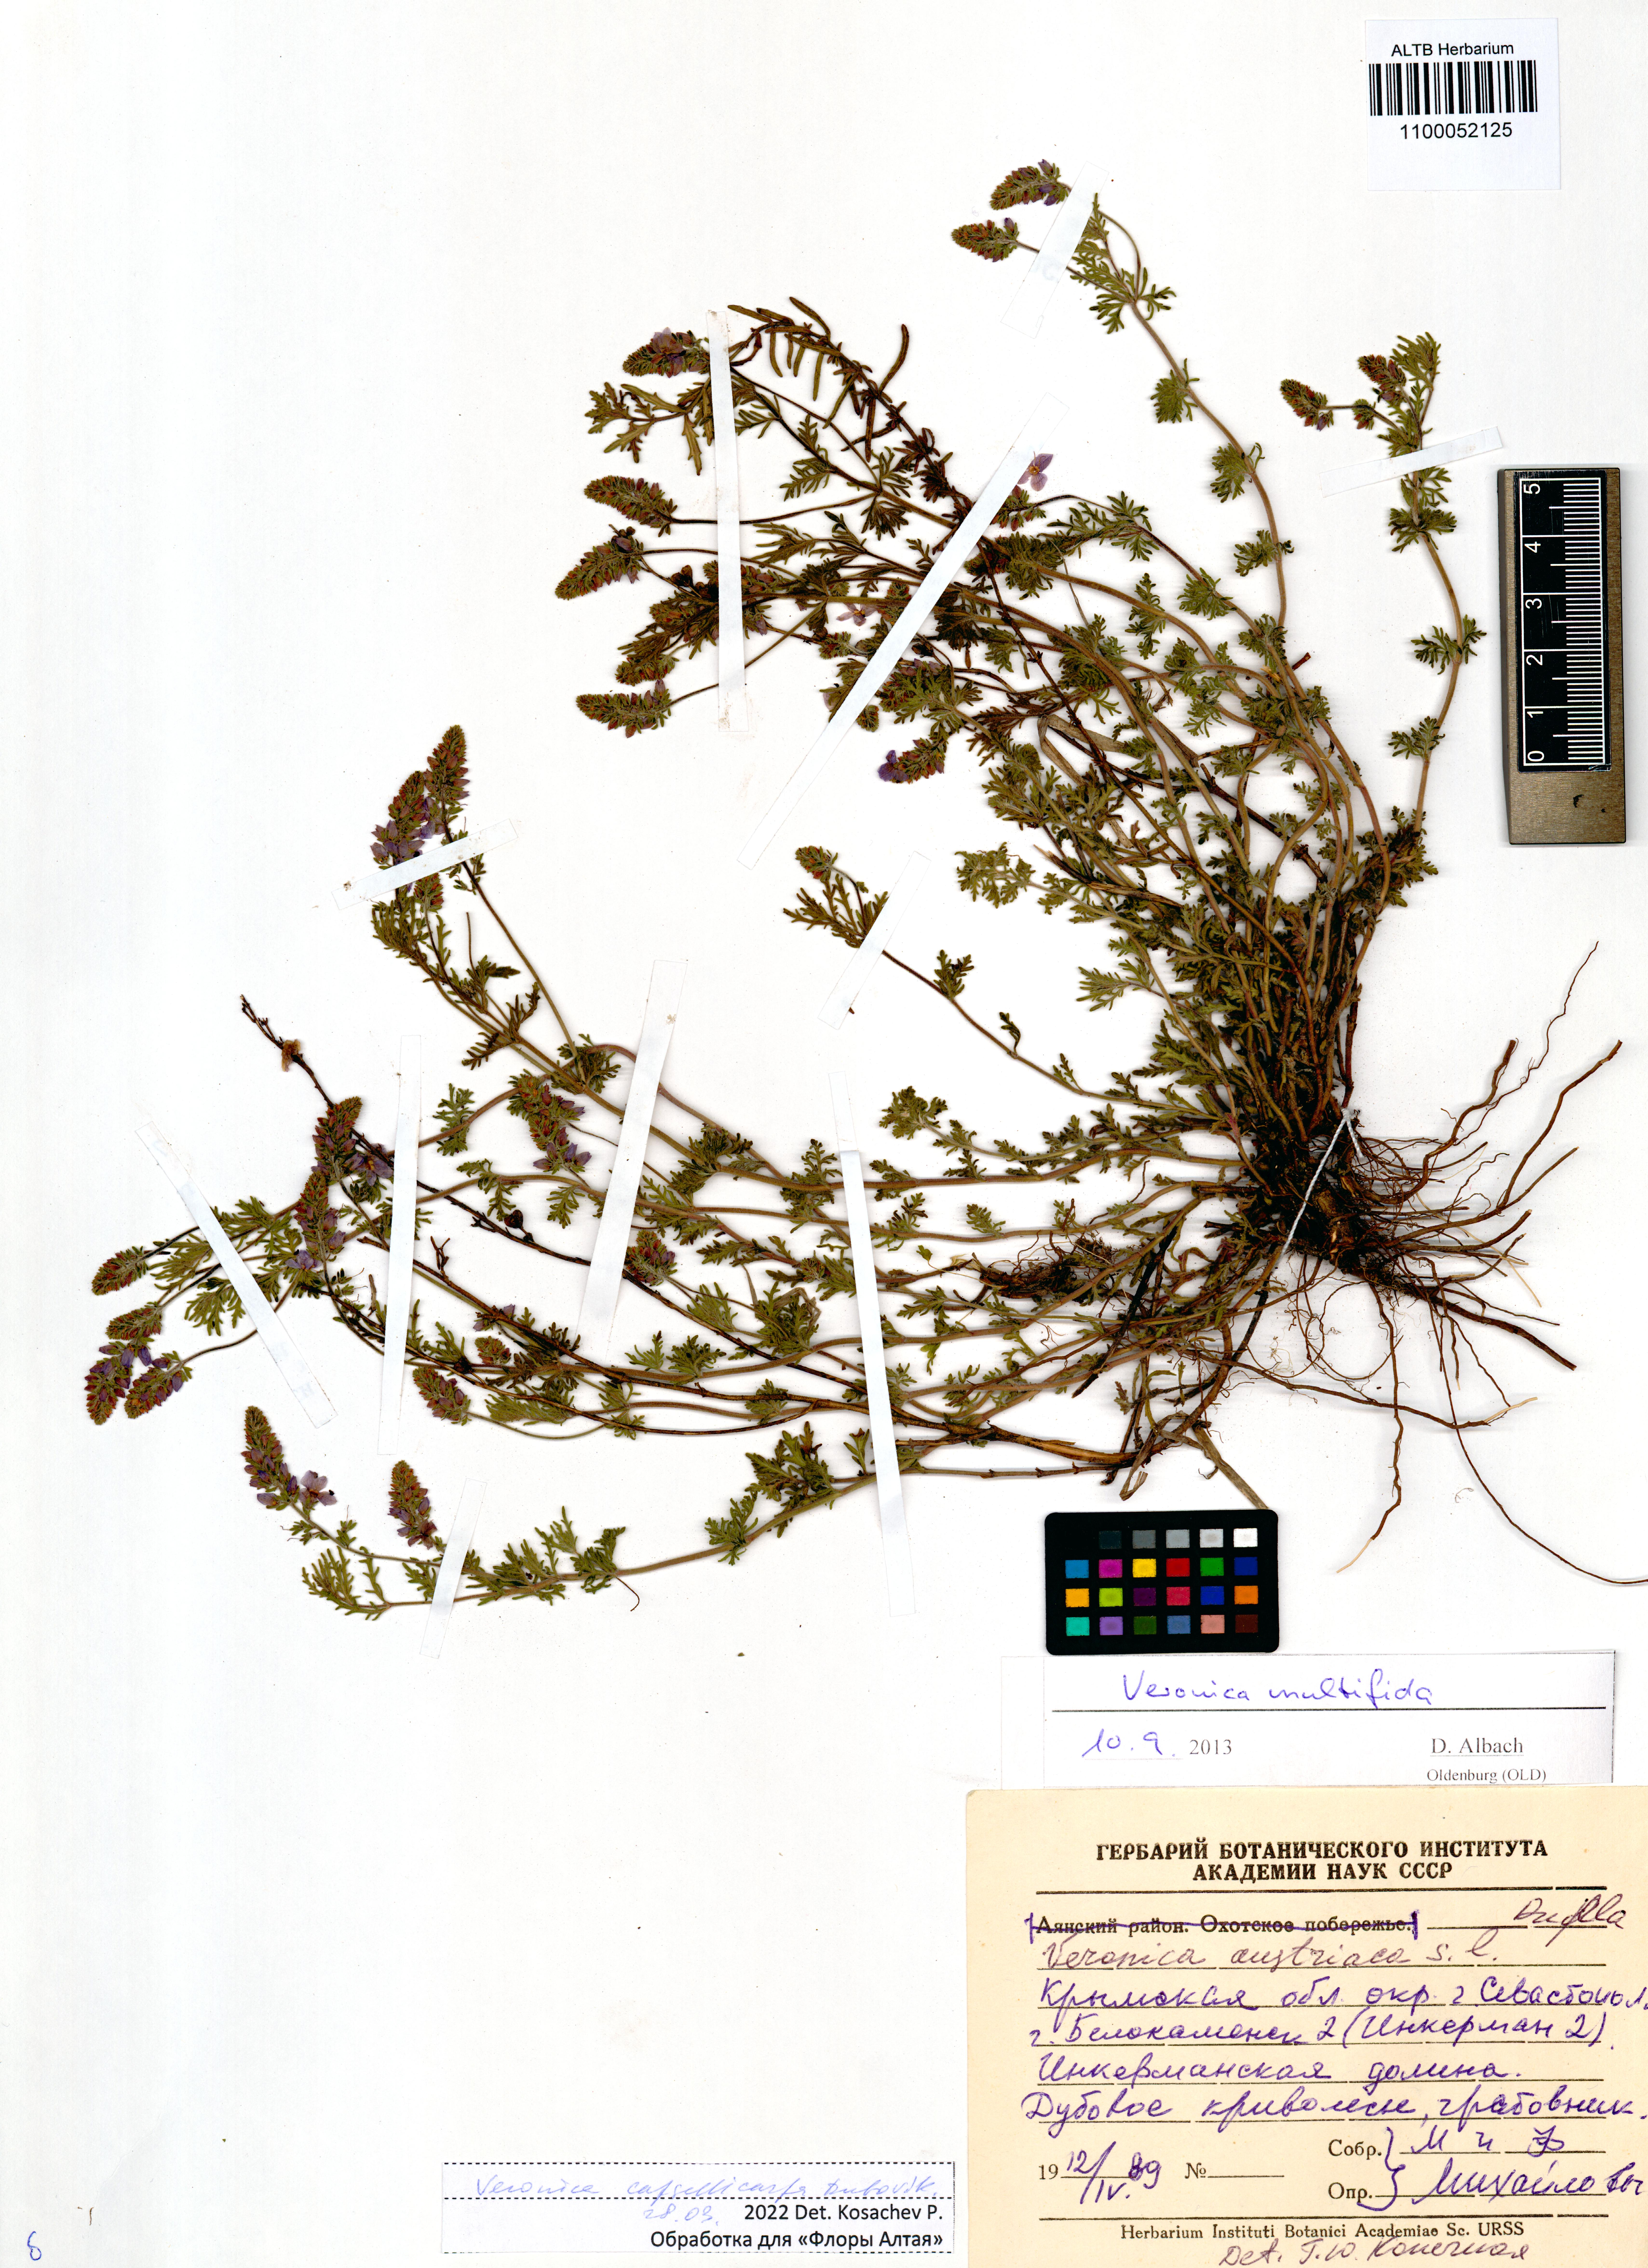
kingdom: Plantae
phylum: Tracheophyta
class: Magnoliopsida
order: Lamiales
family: Plantaginaceae
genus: Veronica
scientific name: Veronica capsellicarpa
